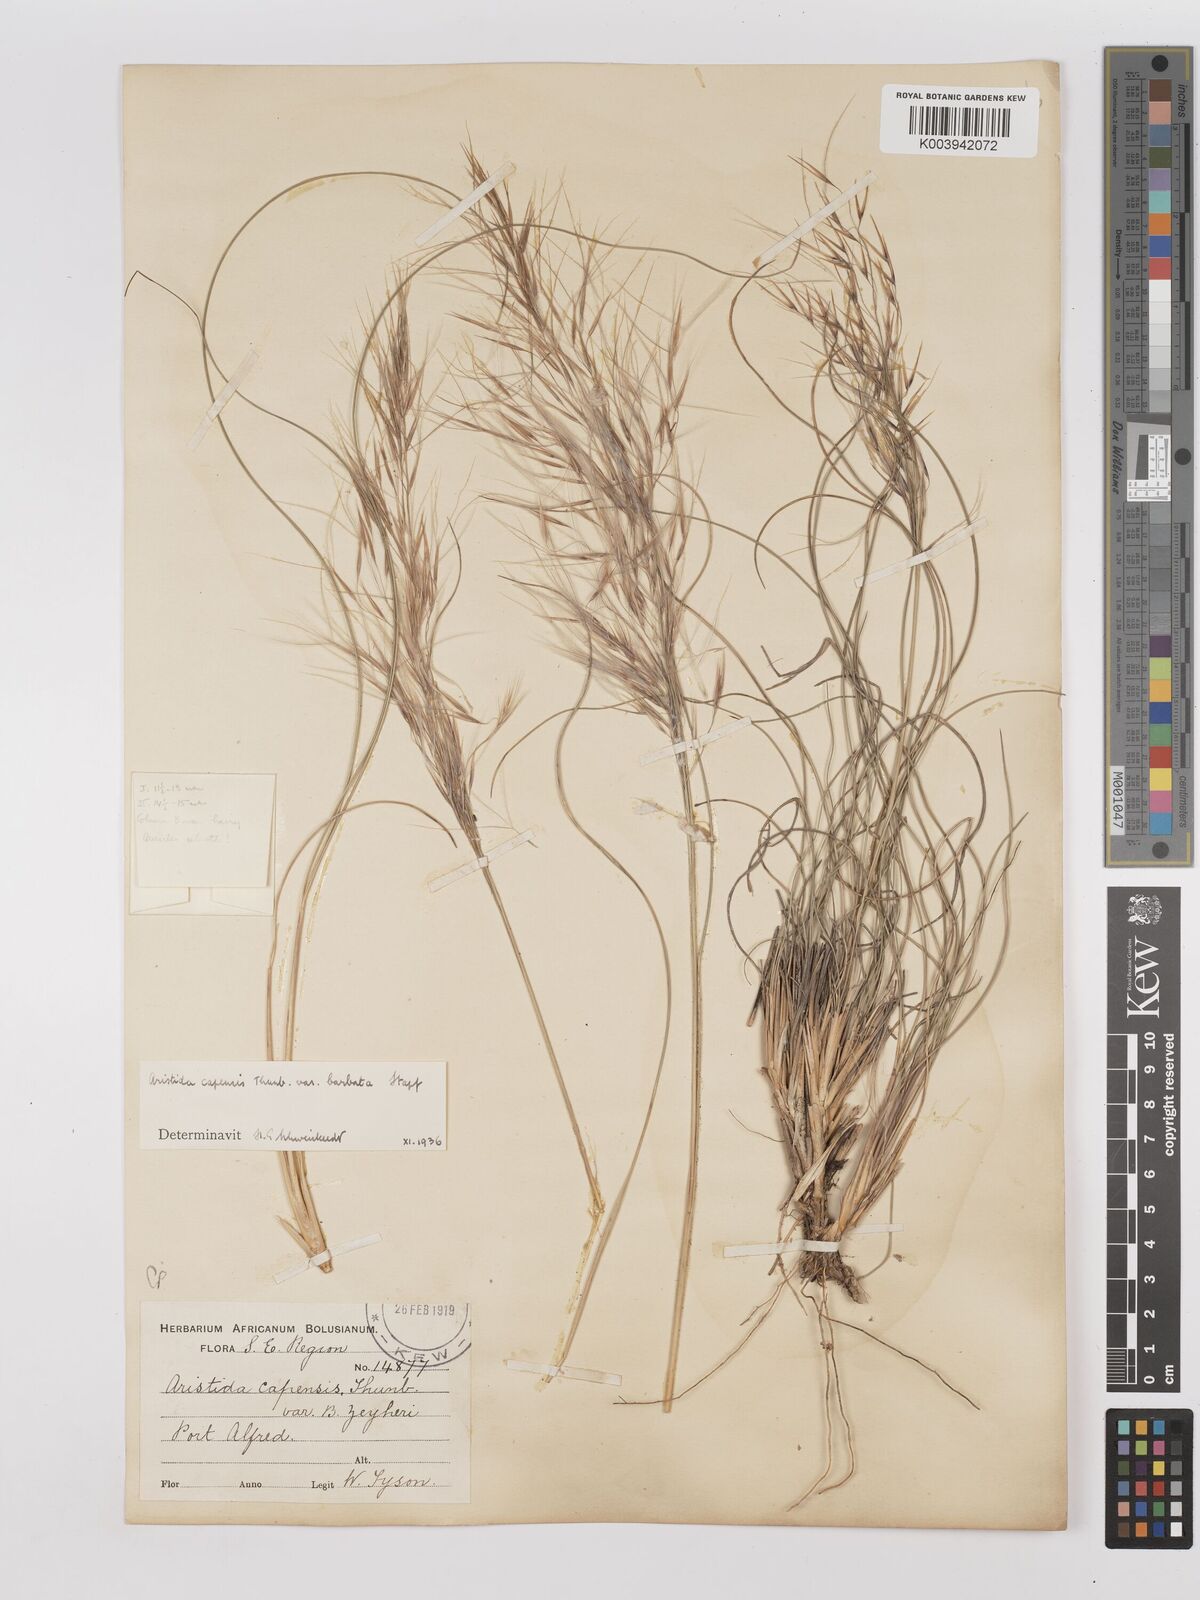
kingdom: Plantae
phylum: Tracheophyta
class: Liliopsida
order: Poales
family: Poaceae
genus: Stipagrostis
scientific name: Stipagrostis zeyheri
